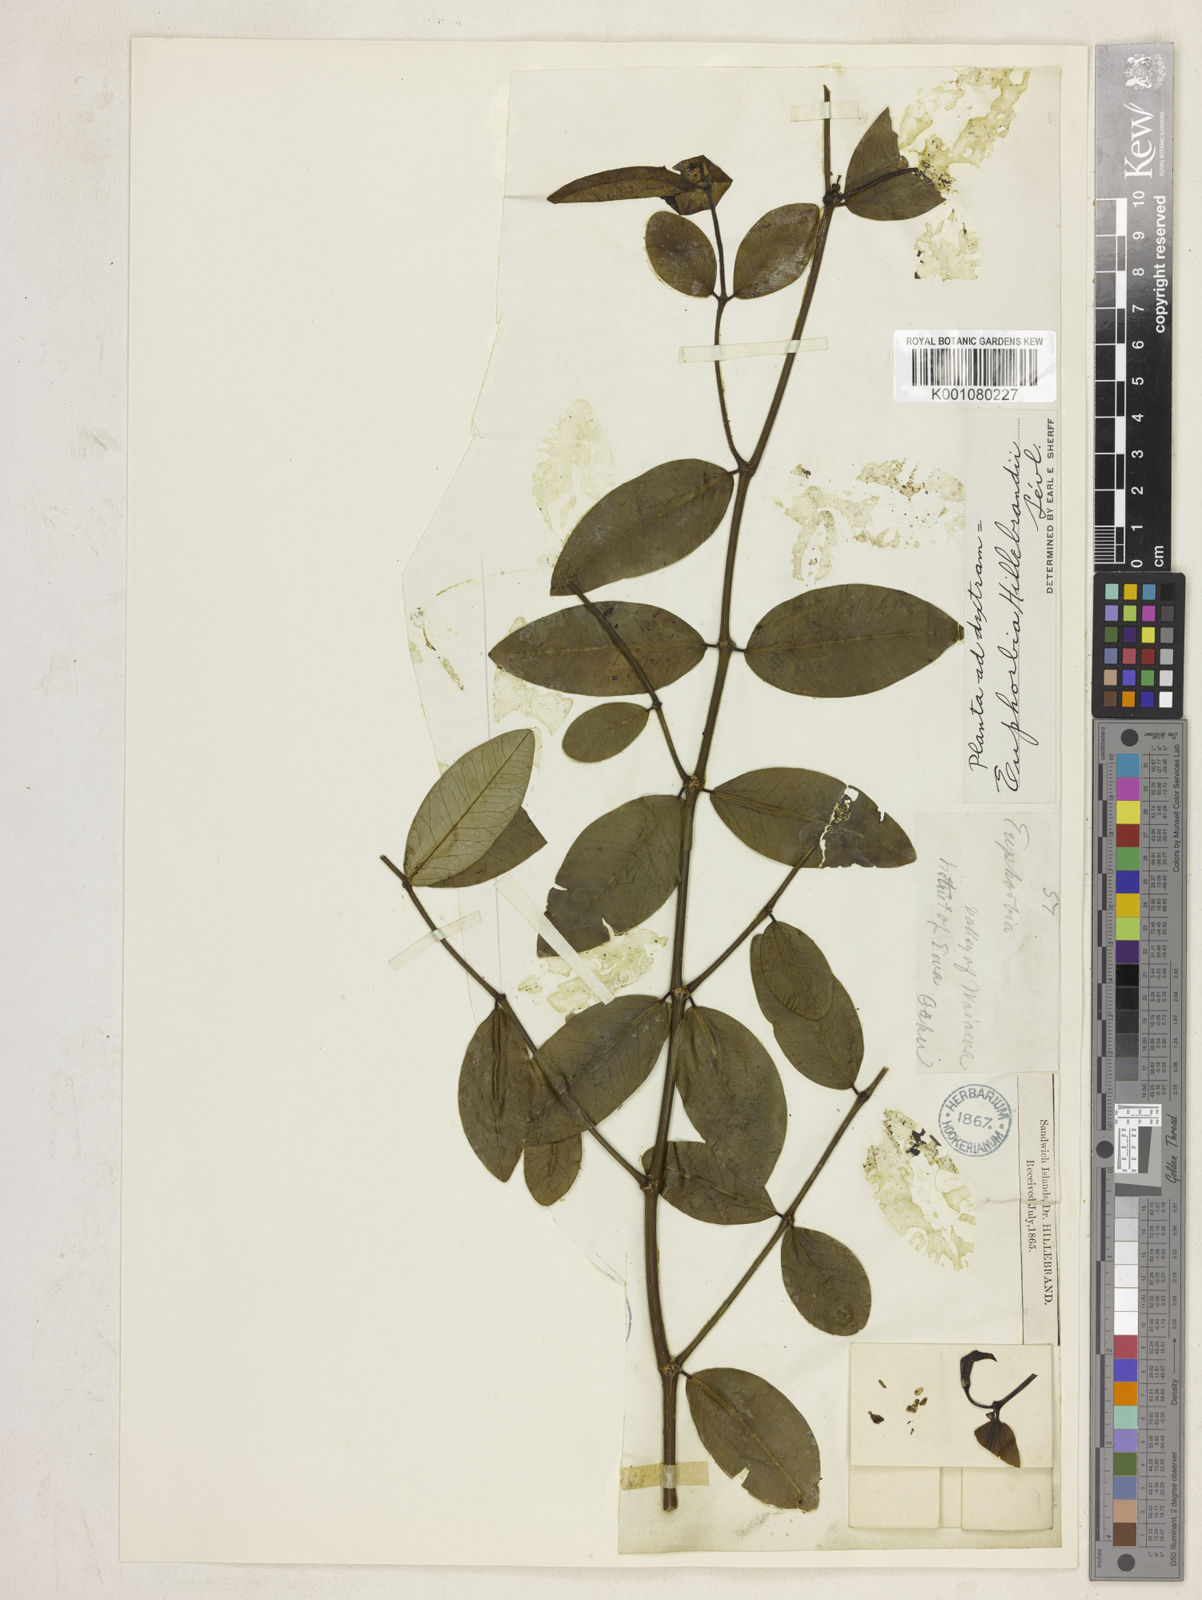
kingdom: Plantae
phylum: Tracheophyta
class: Magnoliopsida
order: Malpighiales
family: Euphorbiaceae
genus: Euphorbia
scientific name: Euphorbia
